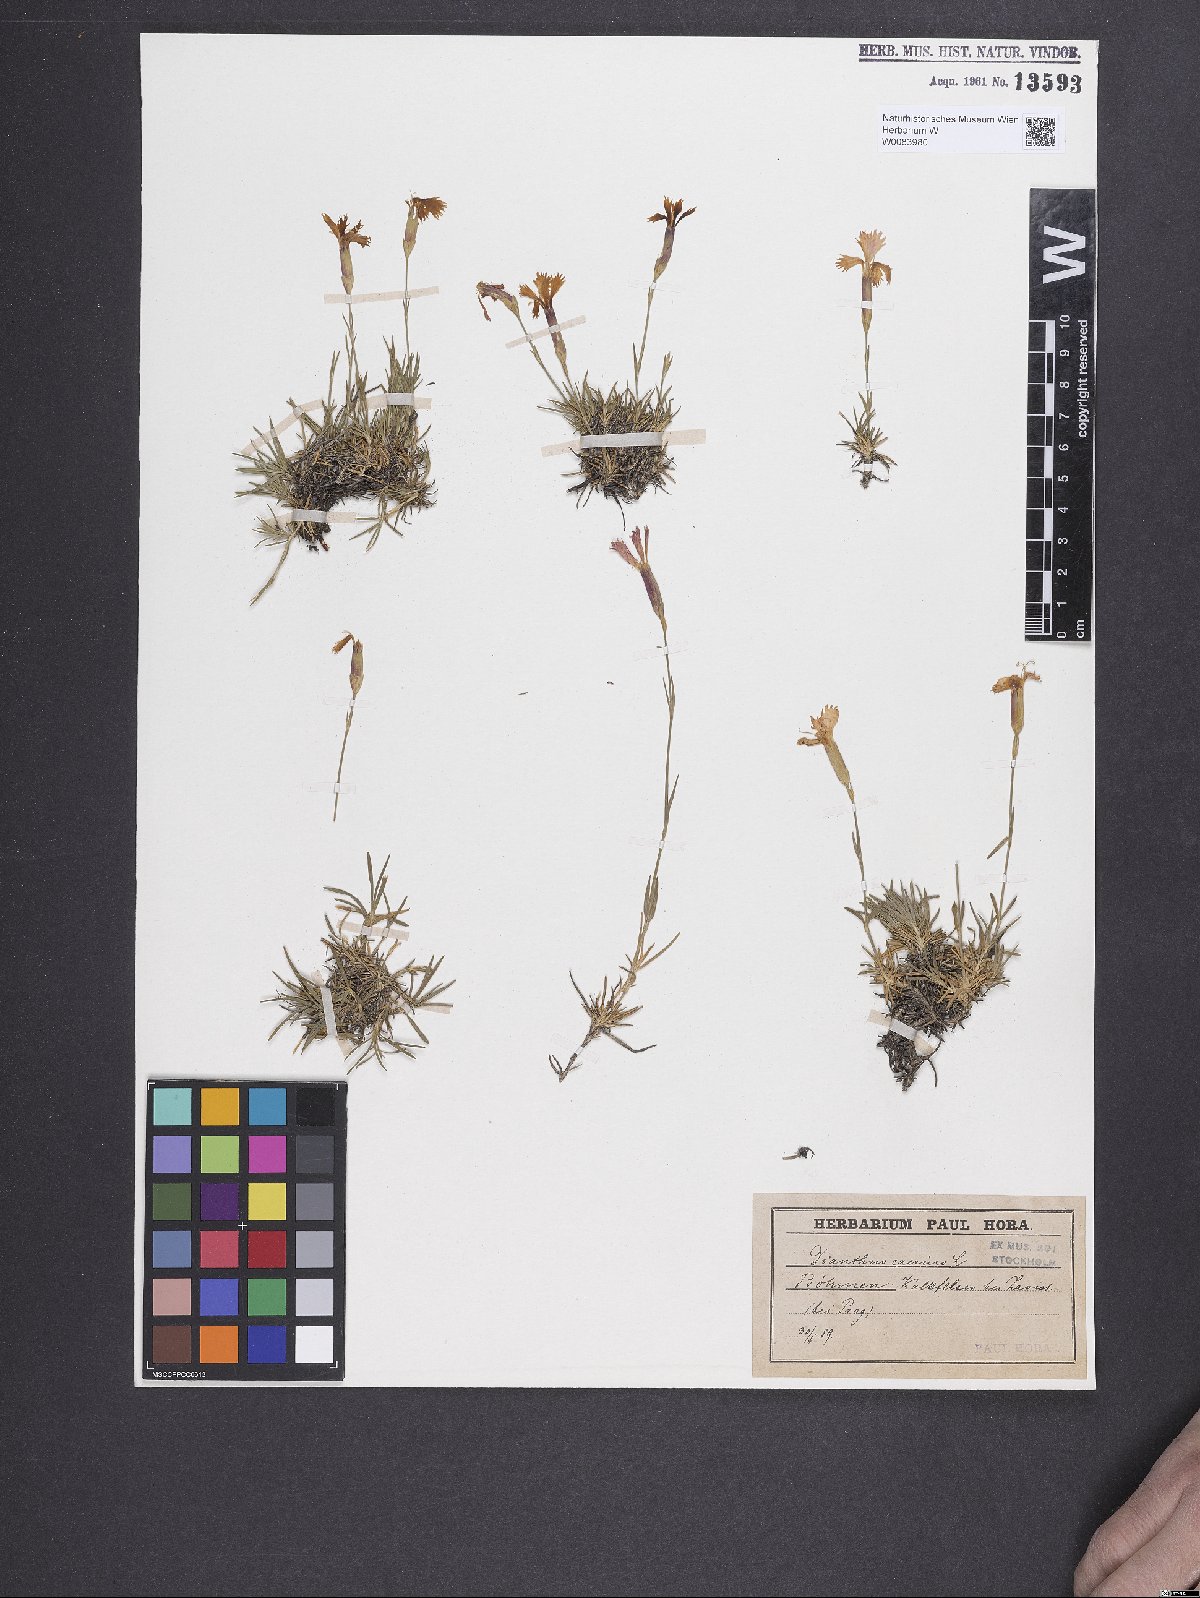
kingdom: Plantae
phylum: Tracheophyta
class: Magnoliopsida
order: Caryophyllales
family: Caryophyllaceae
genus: Dianthus
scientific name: Dianthus gratianopolitanus
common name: Cheddar pink
